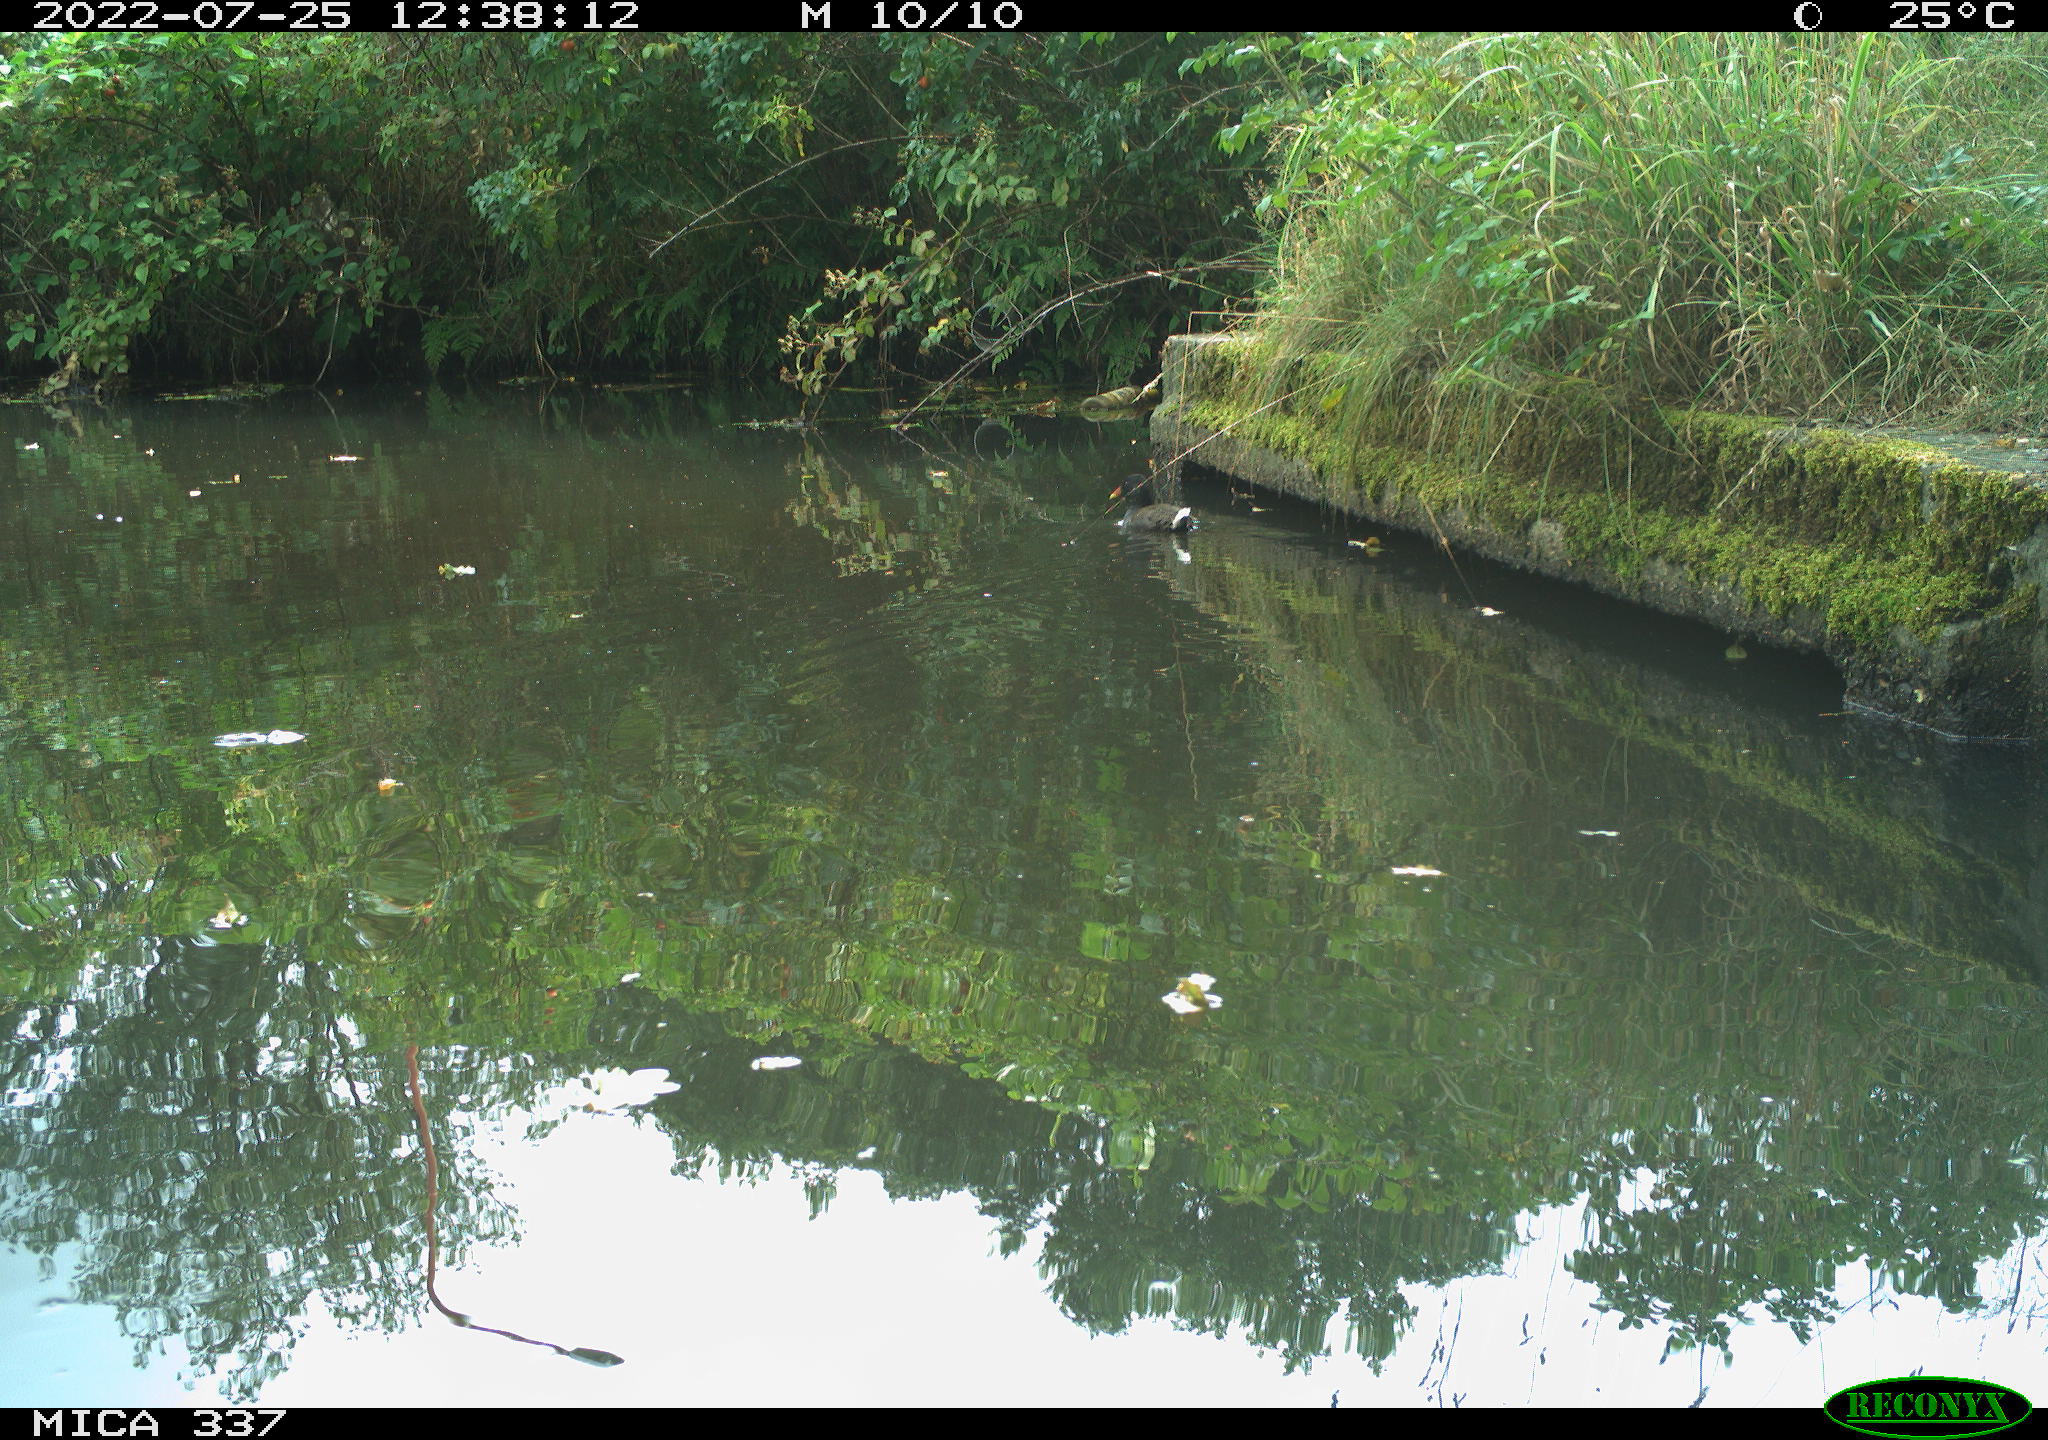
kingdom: Animalia
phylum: Chordata
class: Aves
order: Gruiformes
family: Rallidae
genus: Gallinula
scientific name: Gallinula chloropus
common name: Common moorhen
